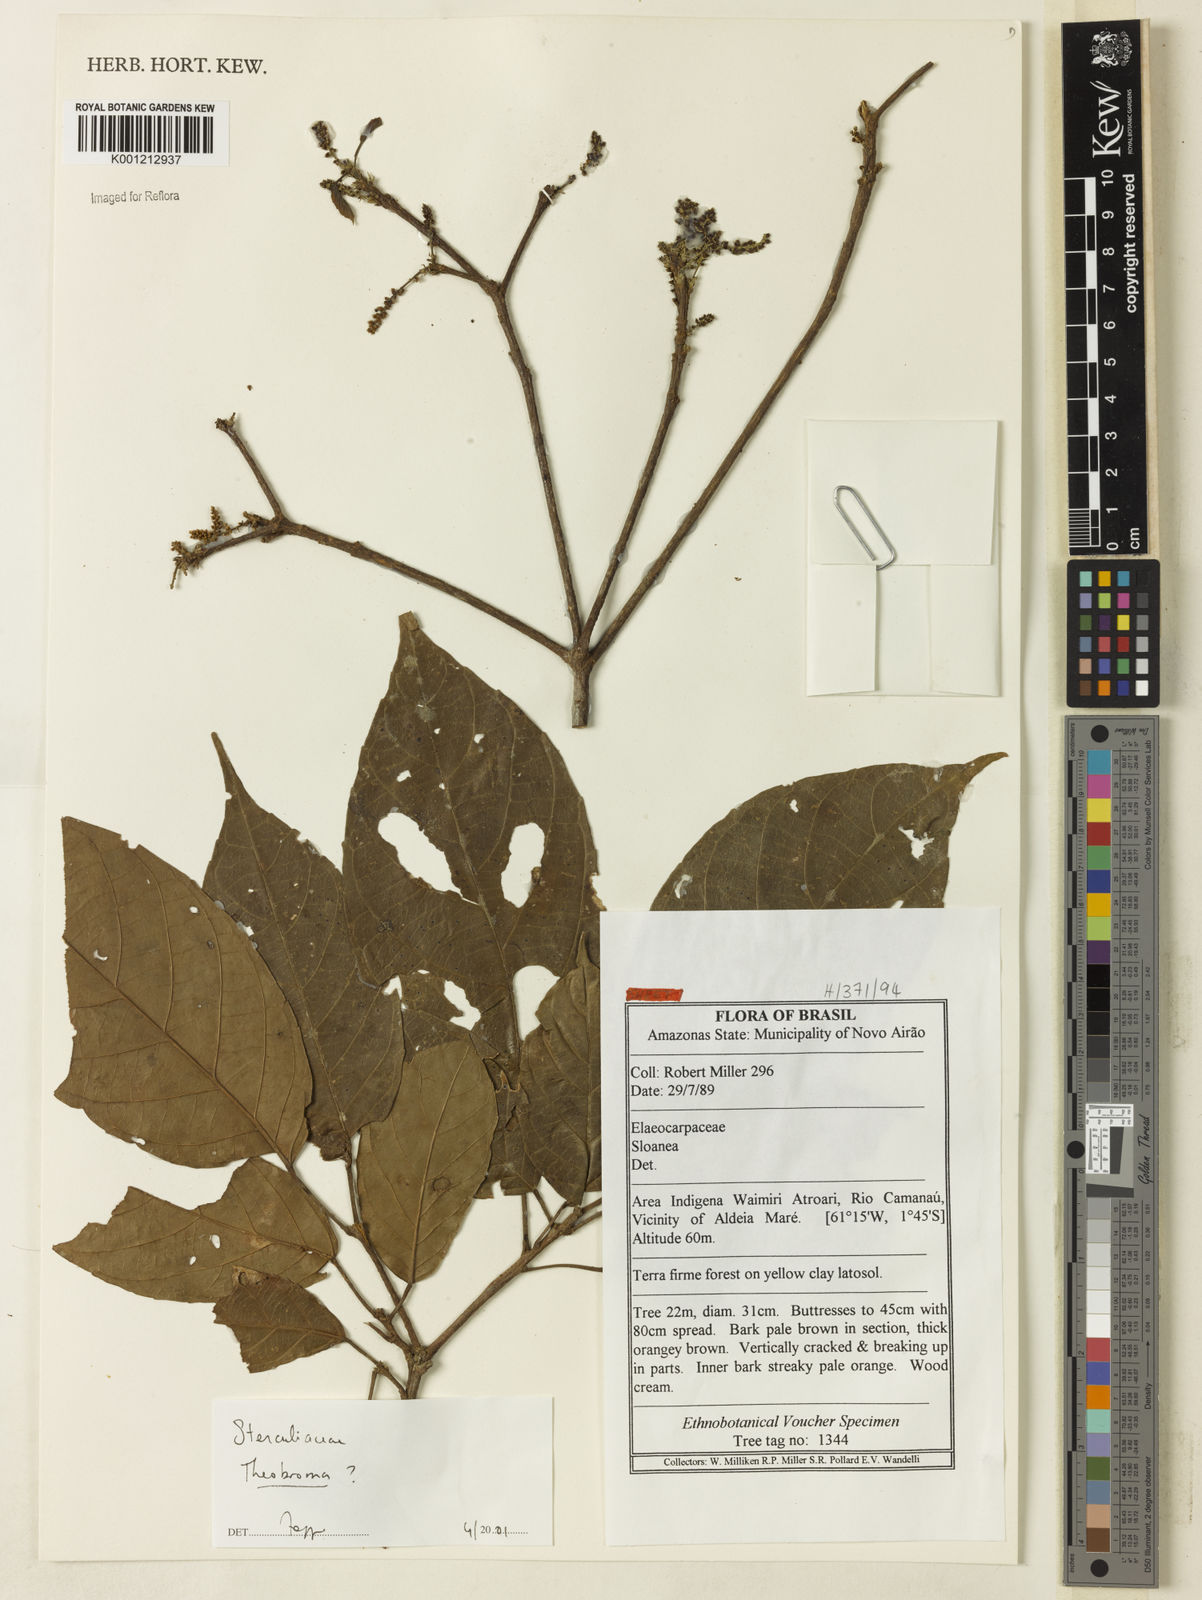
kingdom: Plantae
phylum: Tracheophyta
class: Magnoliopsida
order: Malvales
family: Malvaceae
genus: Theobroma
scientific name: Theobroma
